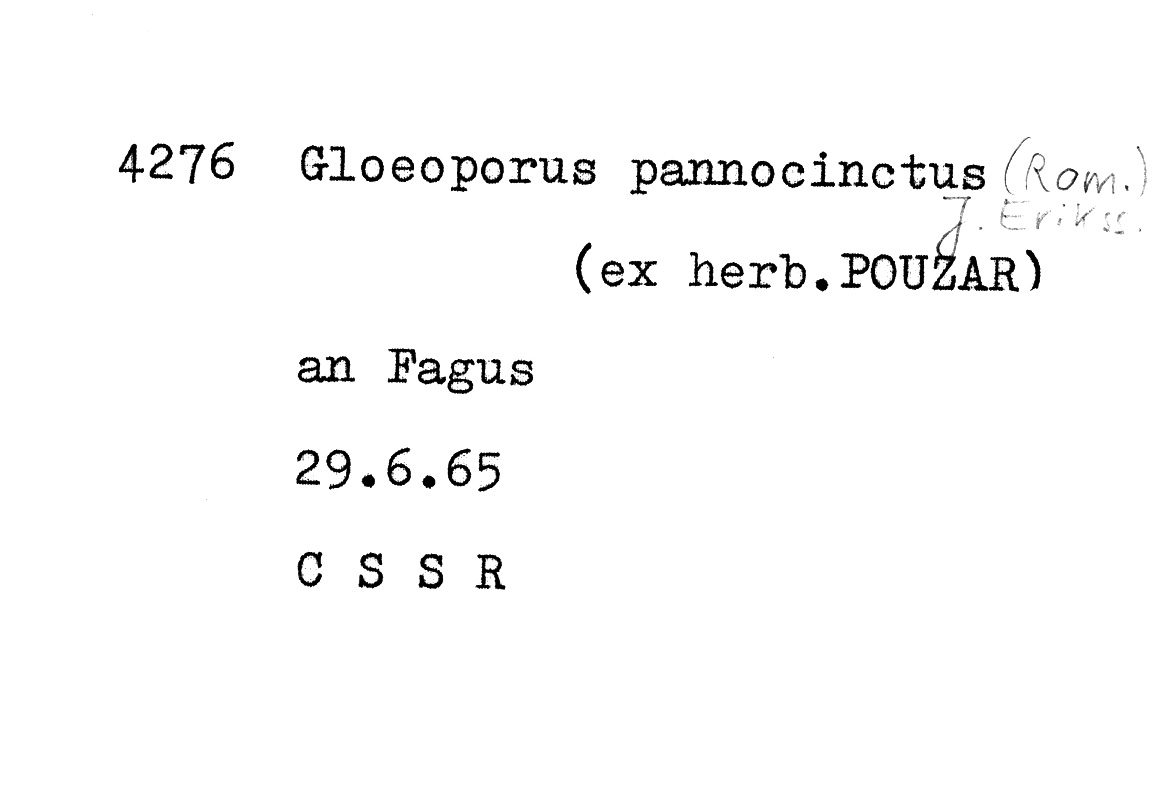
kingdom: Plantae
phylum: Tracheophyta
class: Magnoliopsida
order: Fagales
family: Fagaceae
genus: Fagus
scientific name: Fagus sylvatica
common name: Beech
